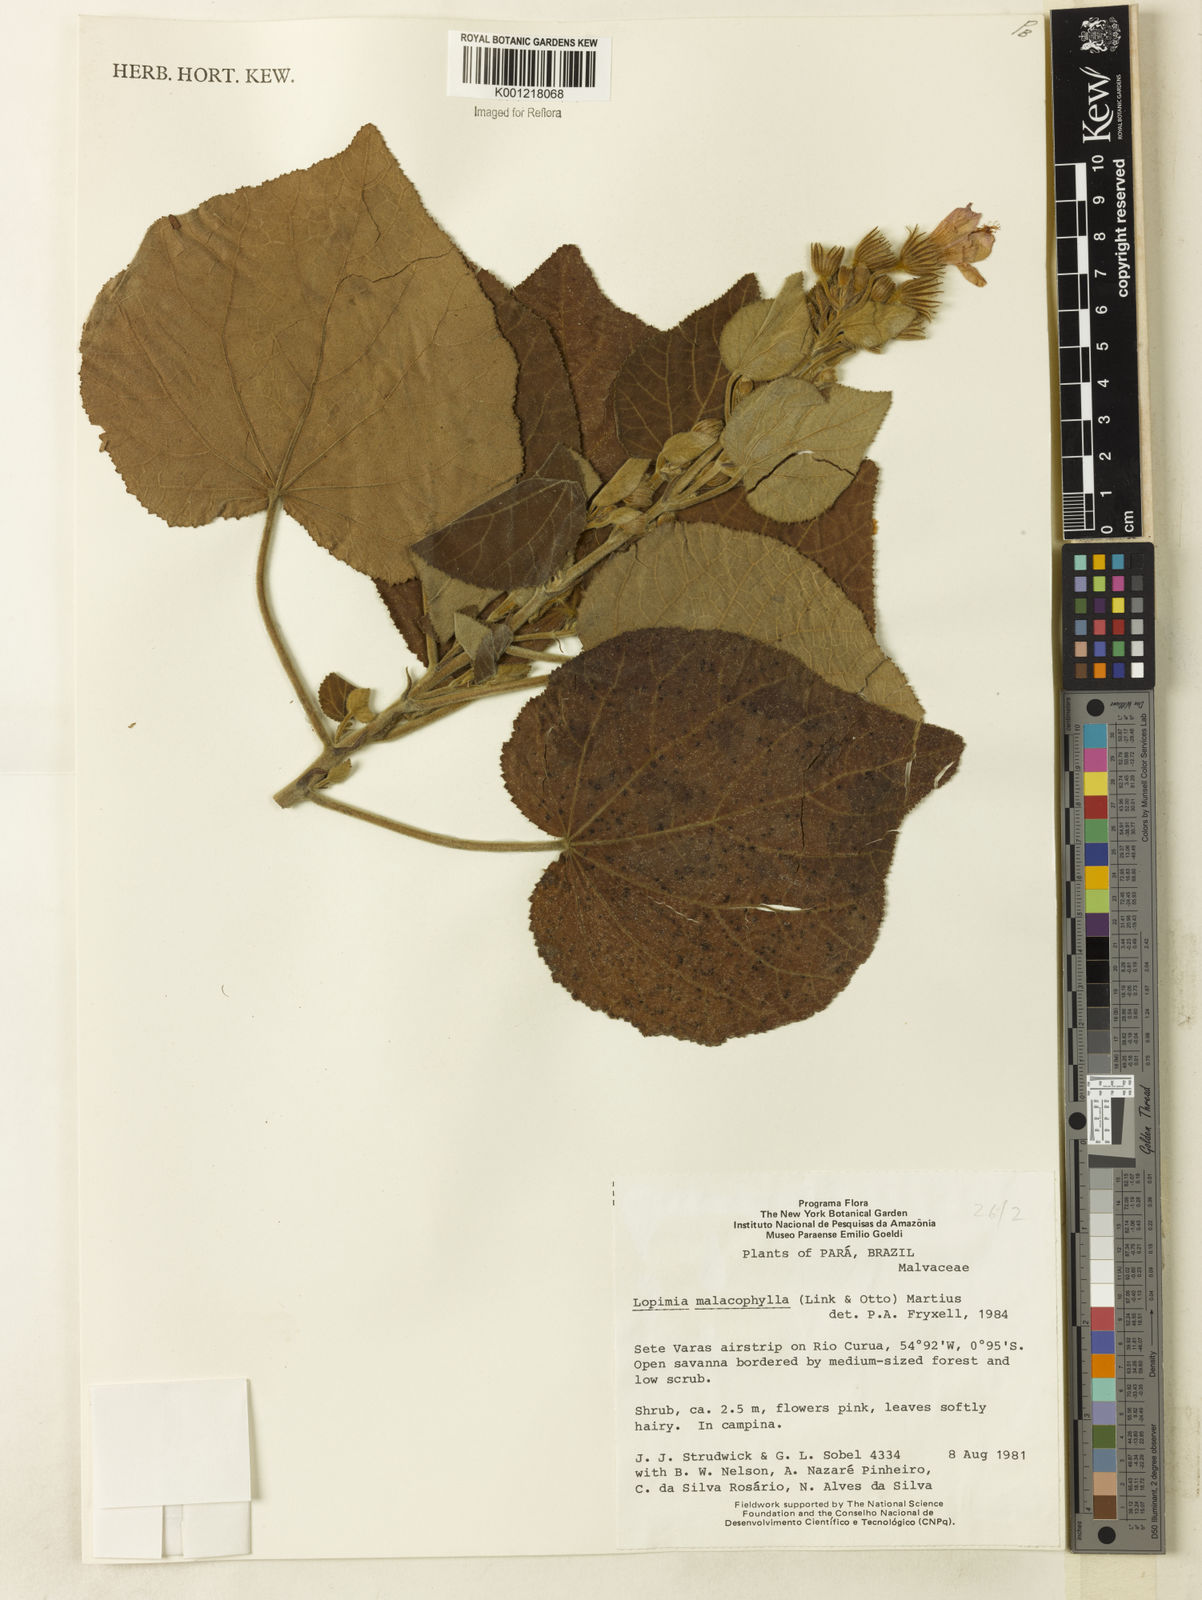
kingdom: Plantae
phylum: Tracheophyta
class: Magnoliopsida
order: Malvales
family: Malvaceae
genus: Pavonia
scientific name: Pavonia malacophylla
